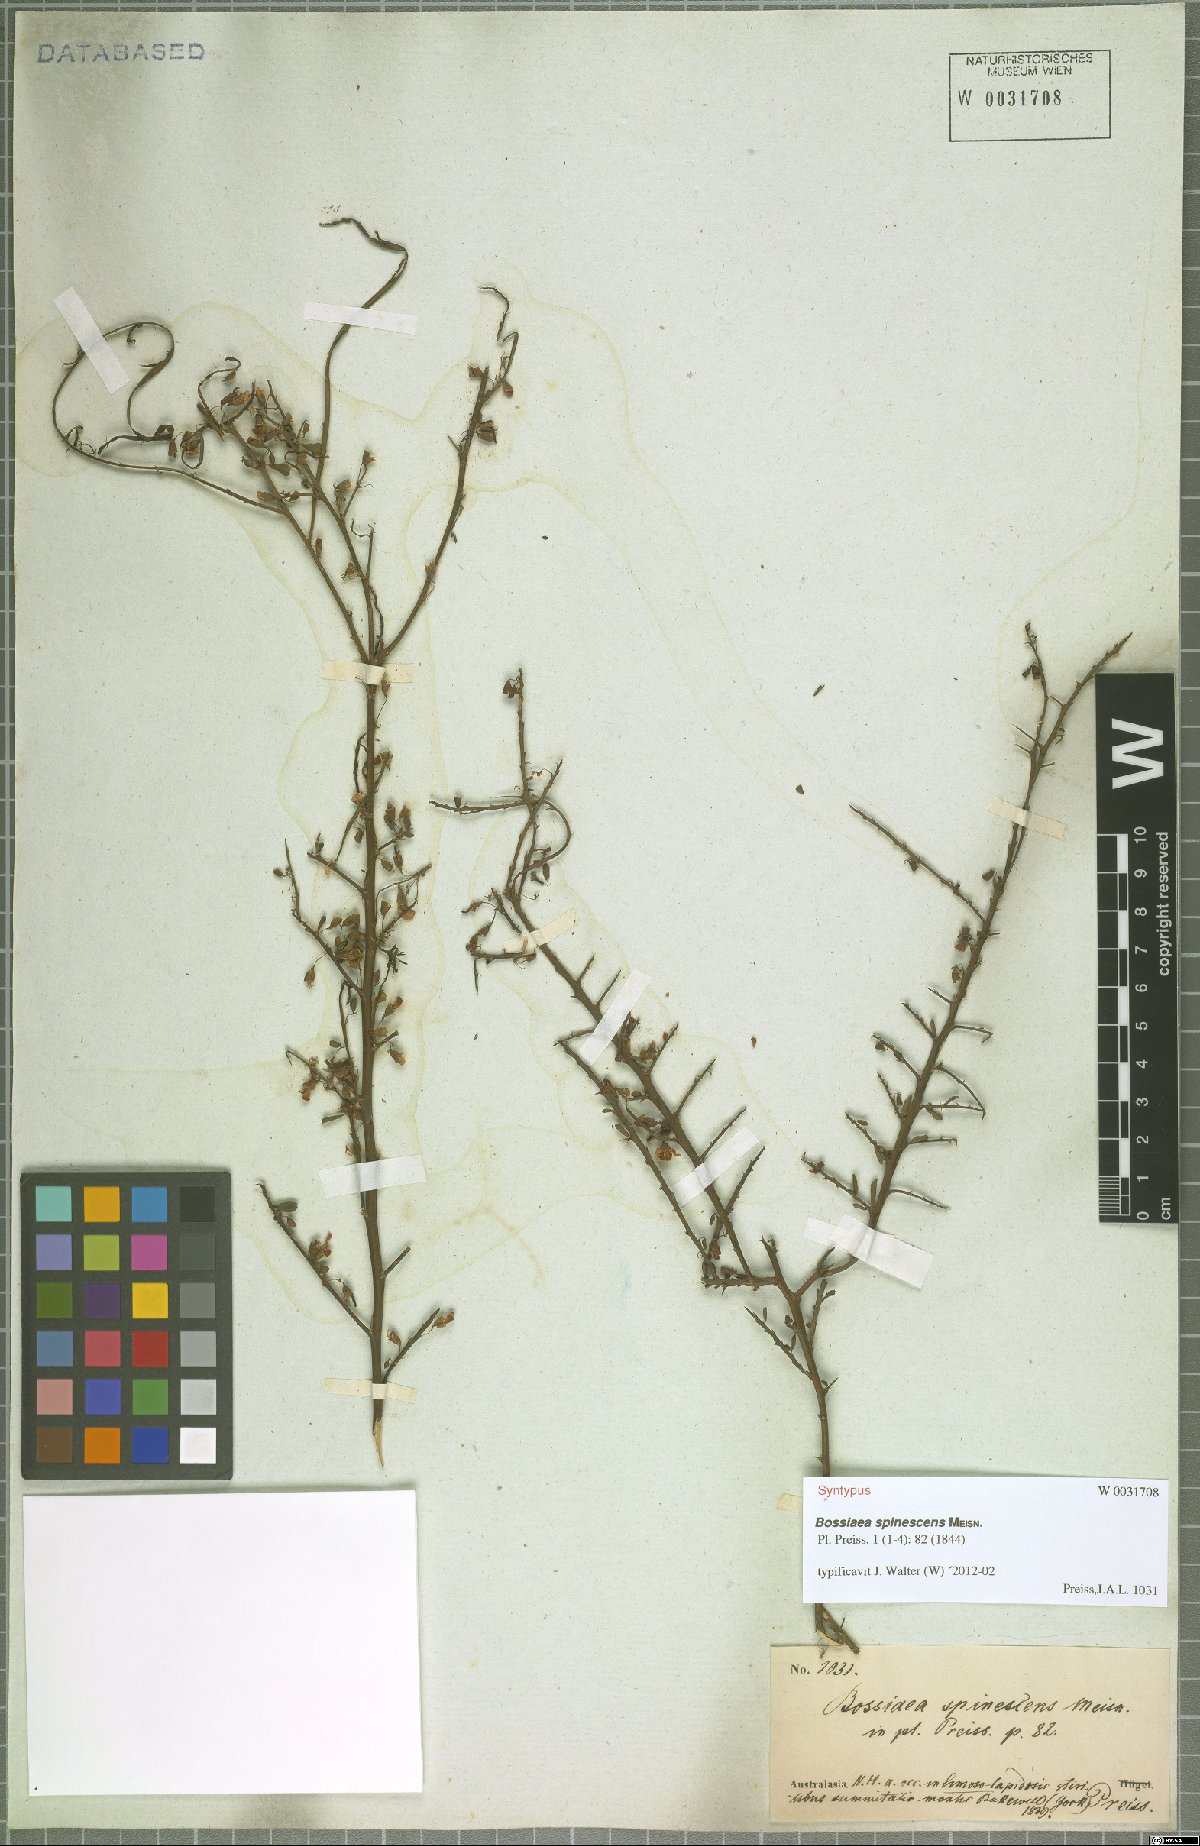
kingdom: Plantae
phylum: Tracheophyta
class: Magnoliopsida
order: Fabales
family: Fabaceae
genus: Bossiaea
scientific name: Bossiaea spinescens
